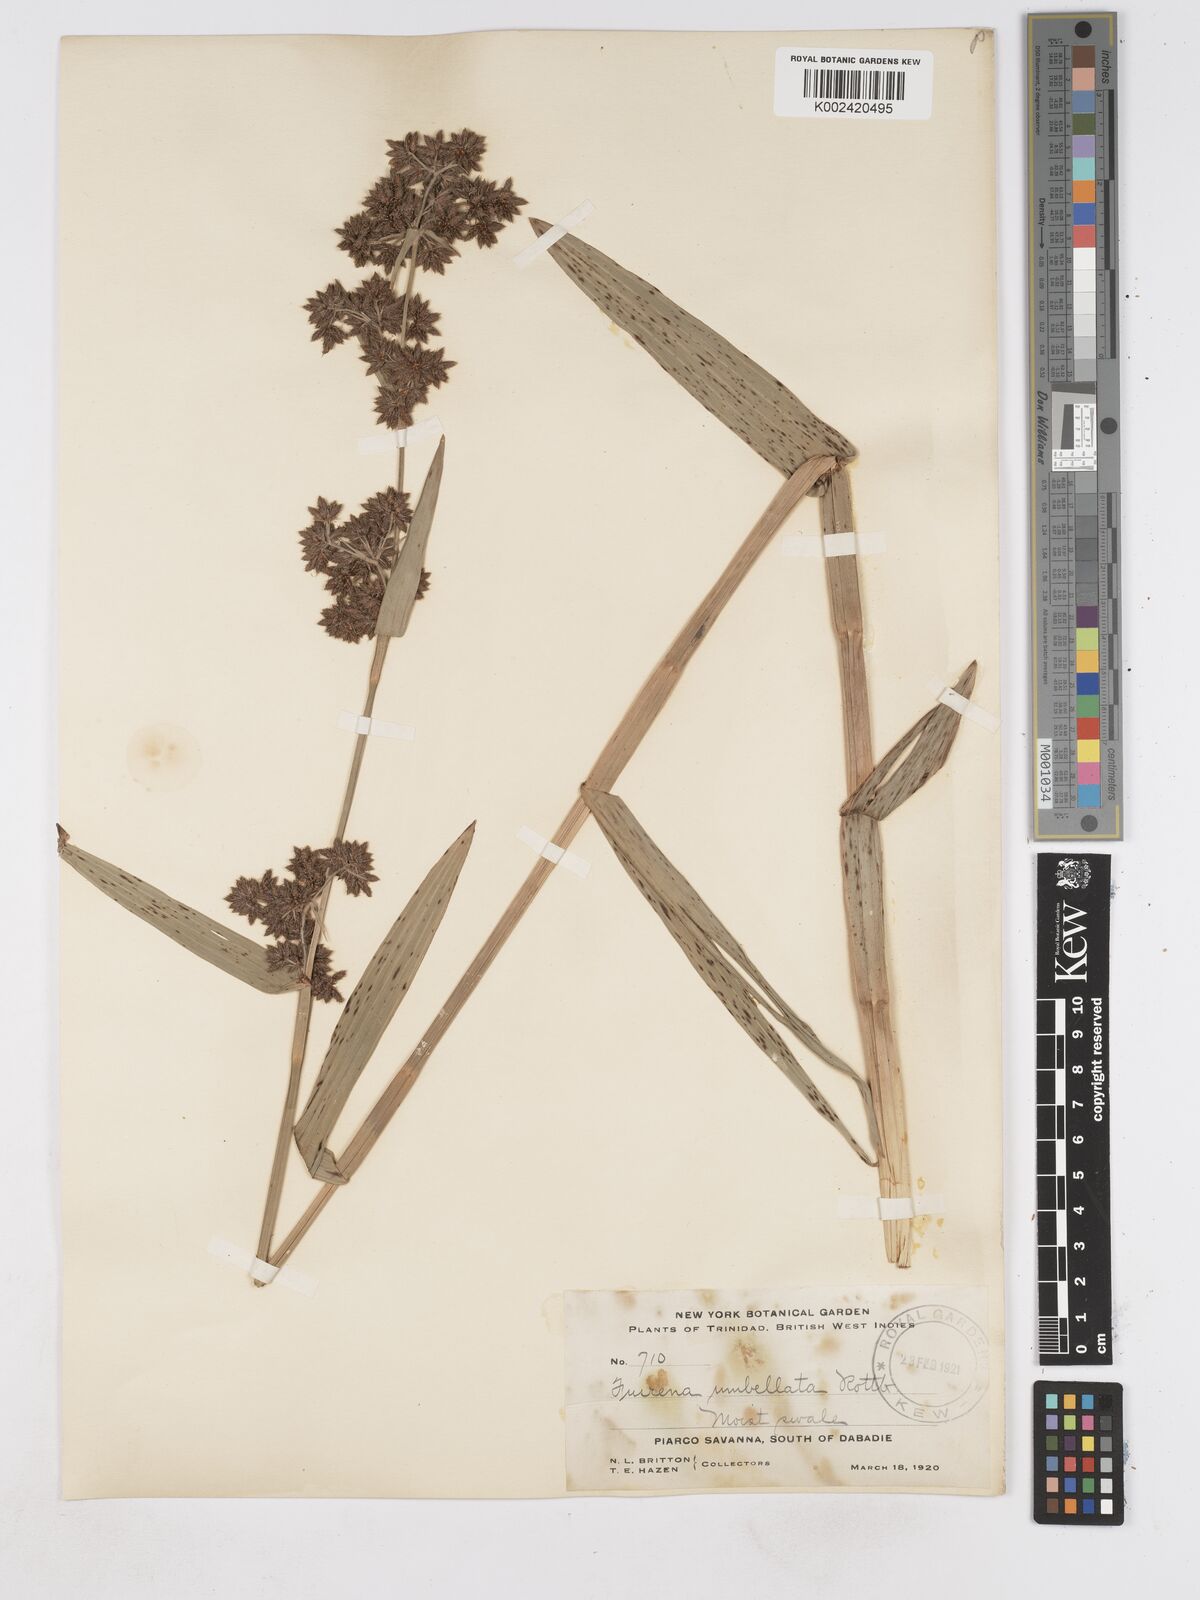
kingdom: Plantae
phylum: Tracheophyta
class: Liliopsida
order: Poales
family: Cyperaceae
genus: Fuirena
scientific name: Fuirena umbellata
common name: Yefen
